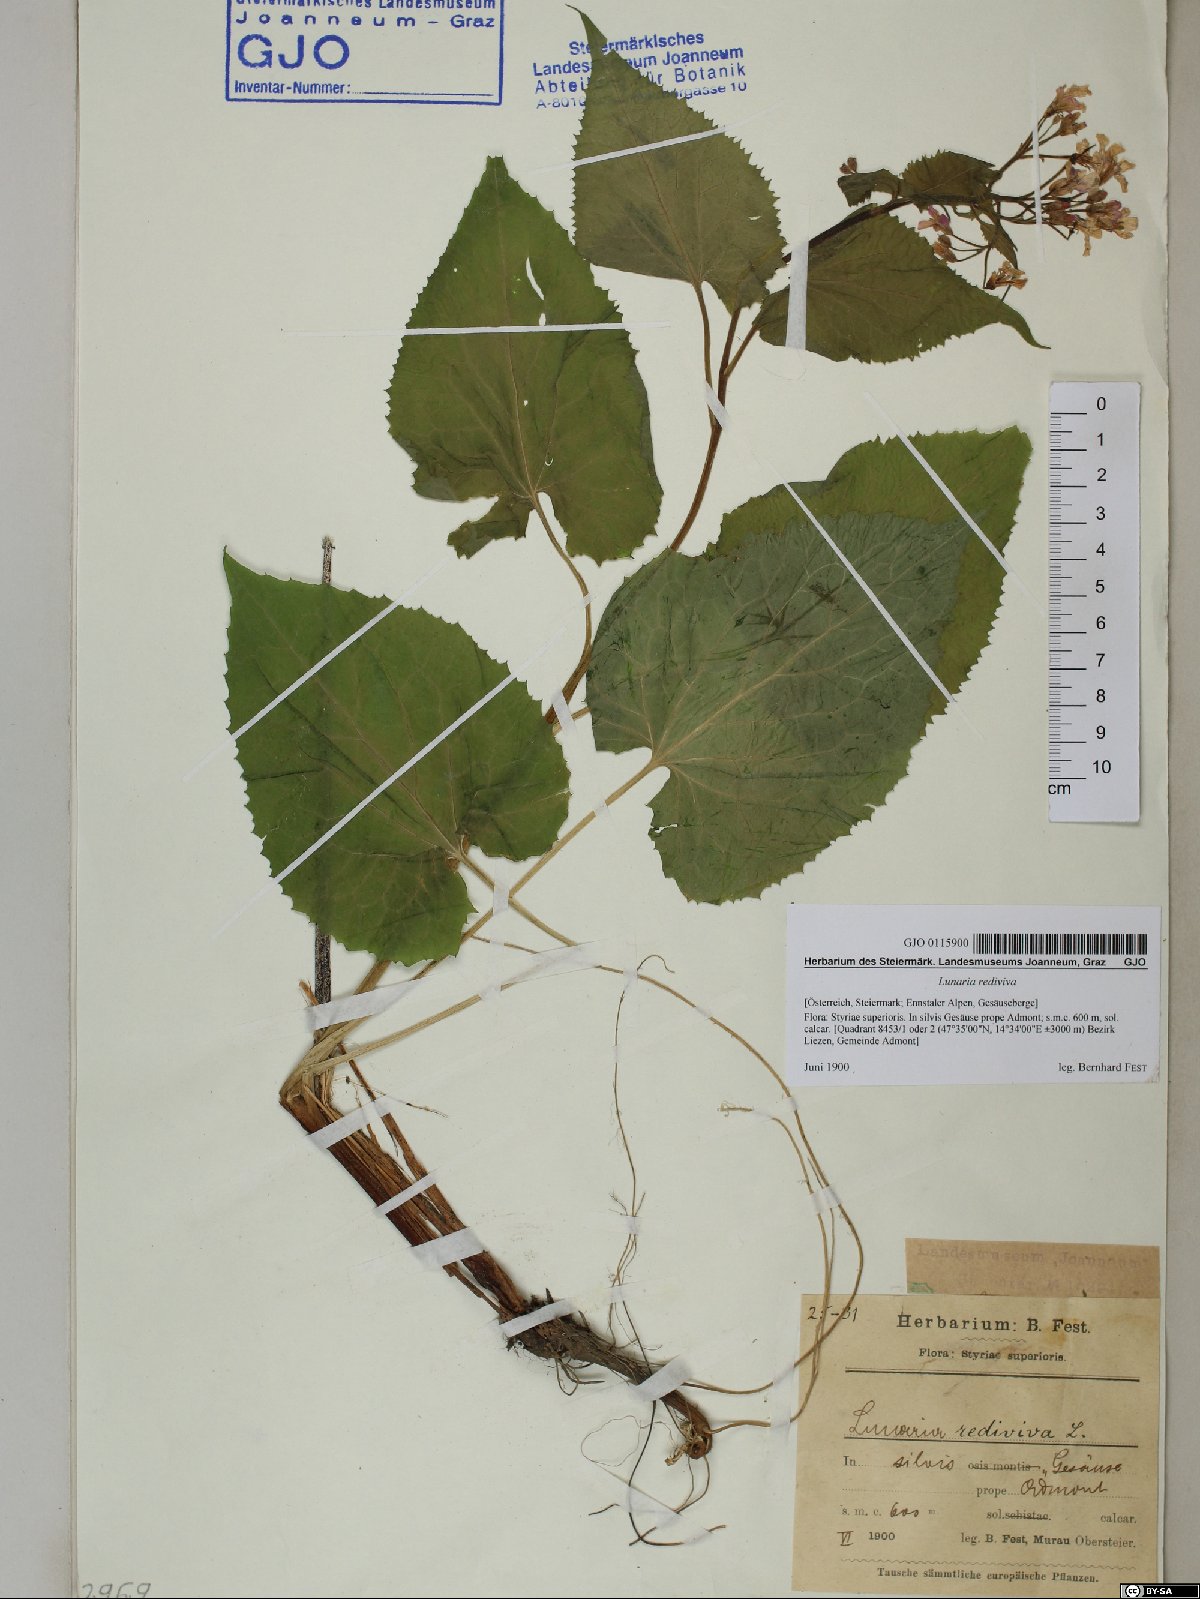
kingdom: Plantae
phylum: Tracheophyta
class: Magnoliopsida
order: Brassicales
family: Brassicaceae
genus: Lunaria
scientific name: Lunaria rediviva
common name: Perennial honesty
